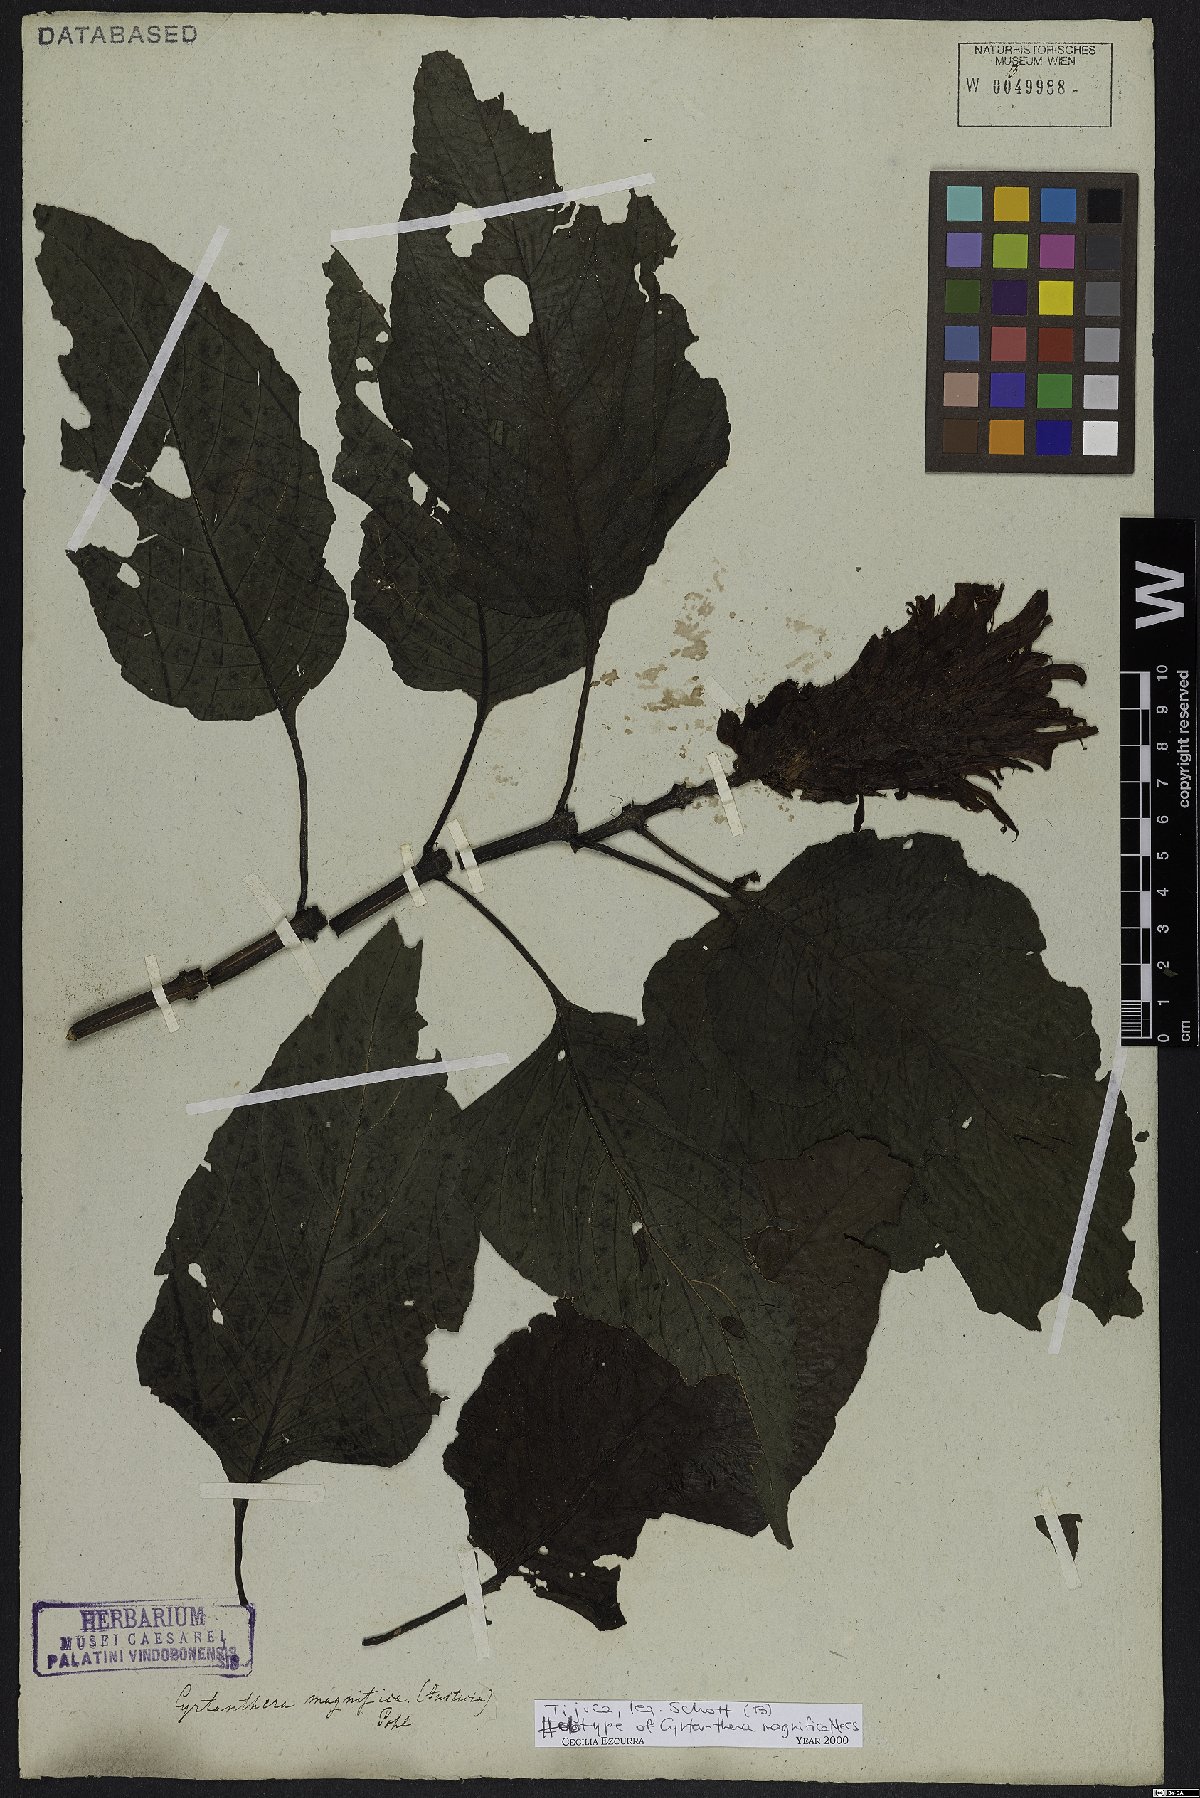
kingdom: Plantae
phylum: Tracheophyta
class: Magnoliopsida
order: Lamiales
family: Acanthaceae
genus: Justicia
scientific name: Justicia carnea
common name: Brazilian-plume
